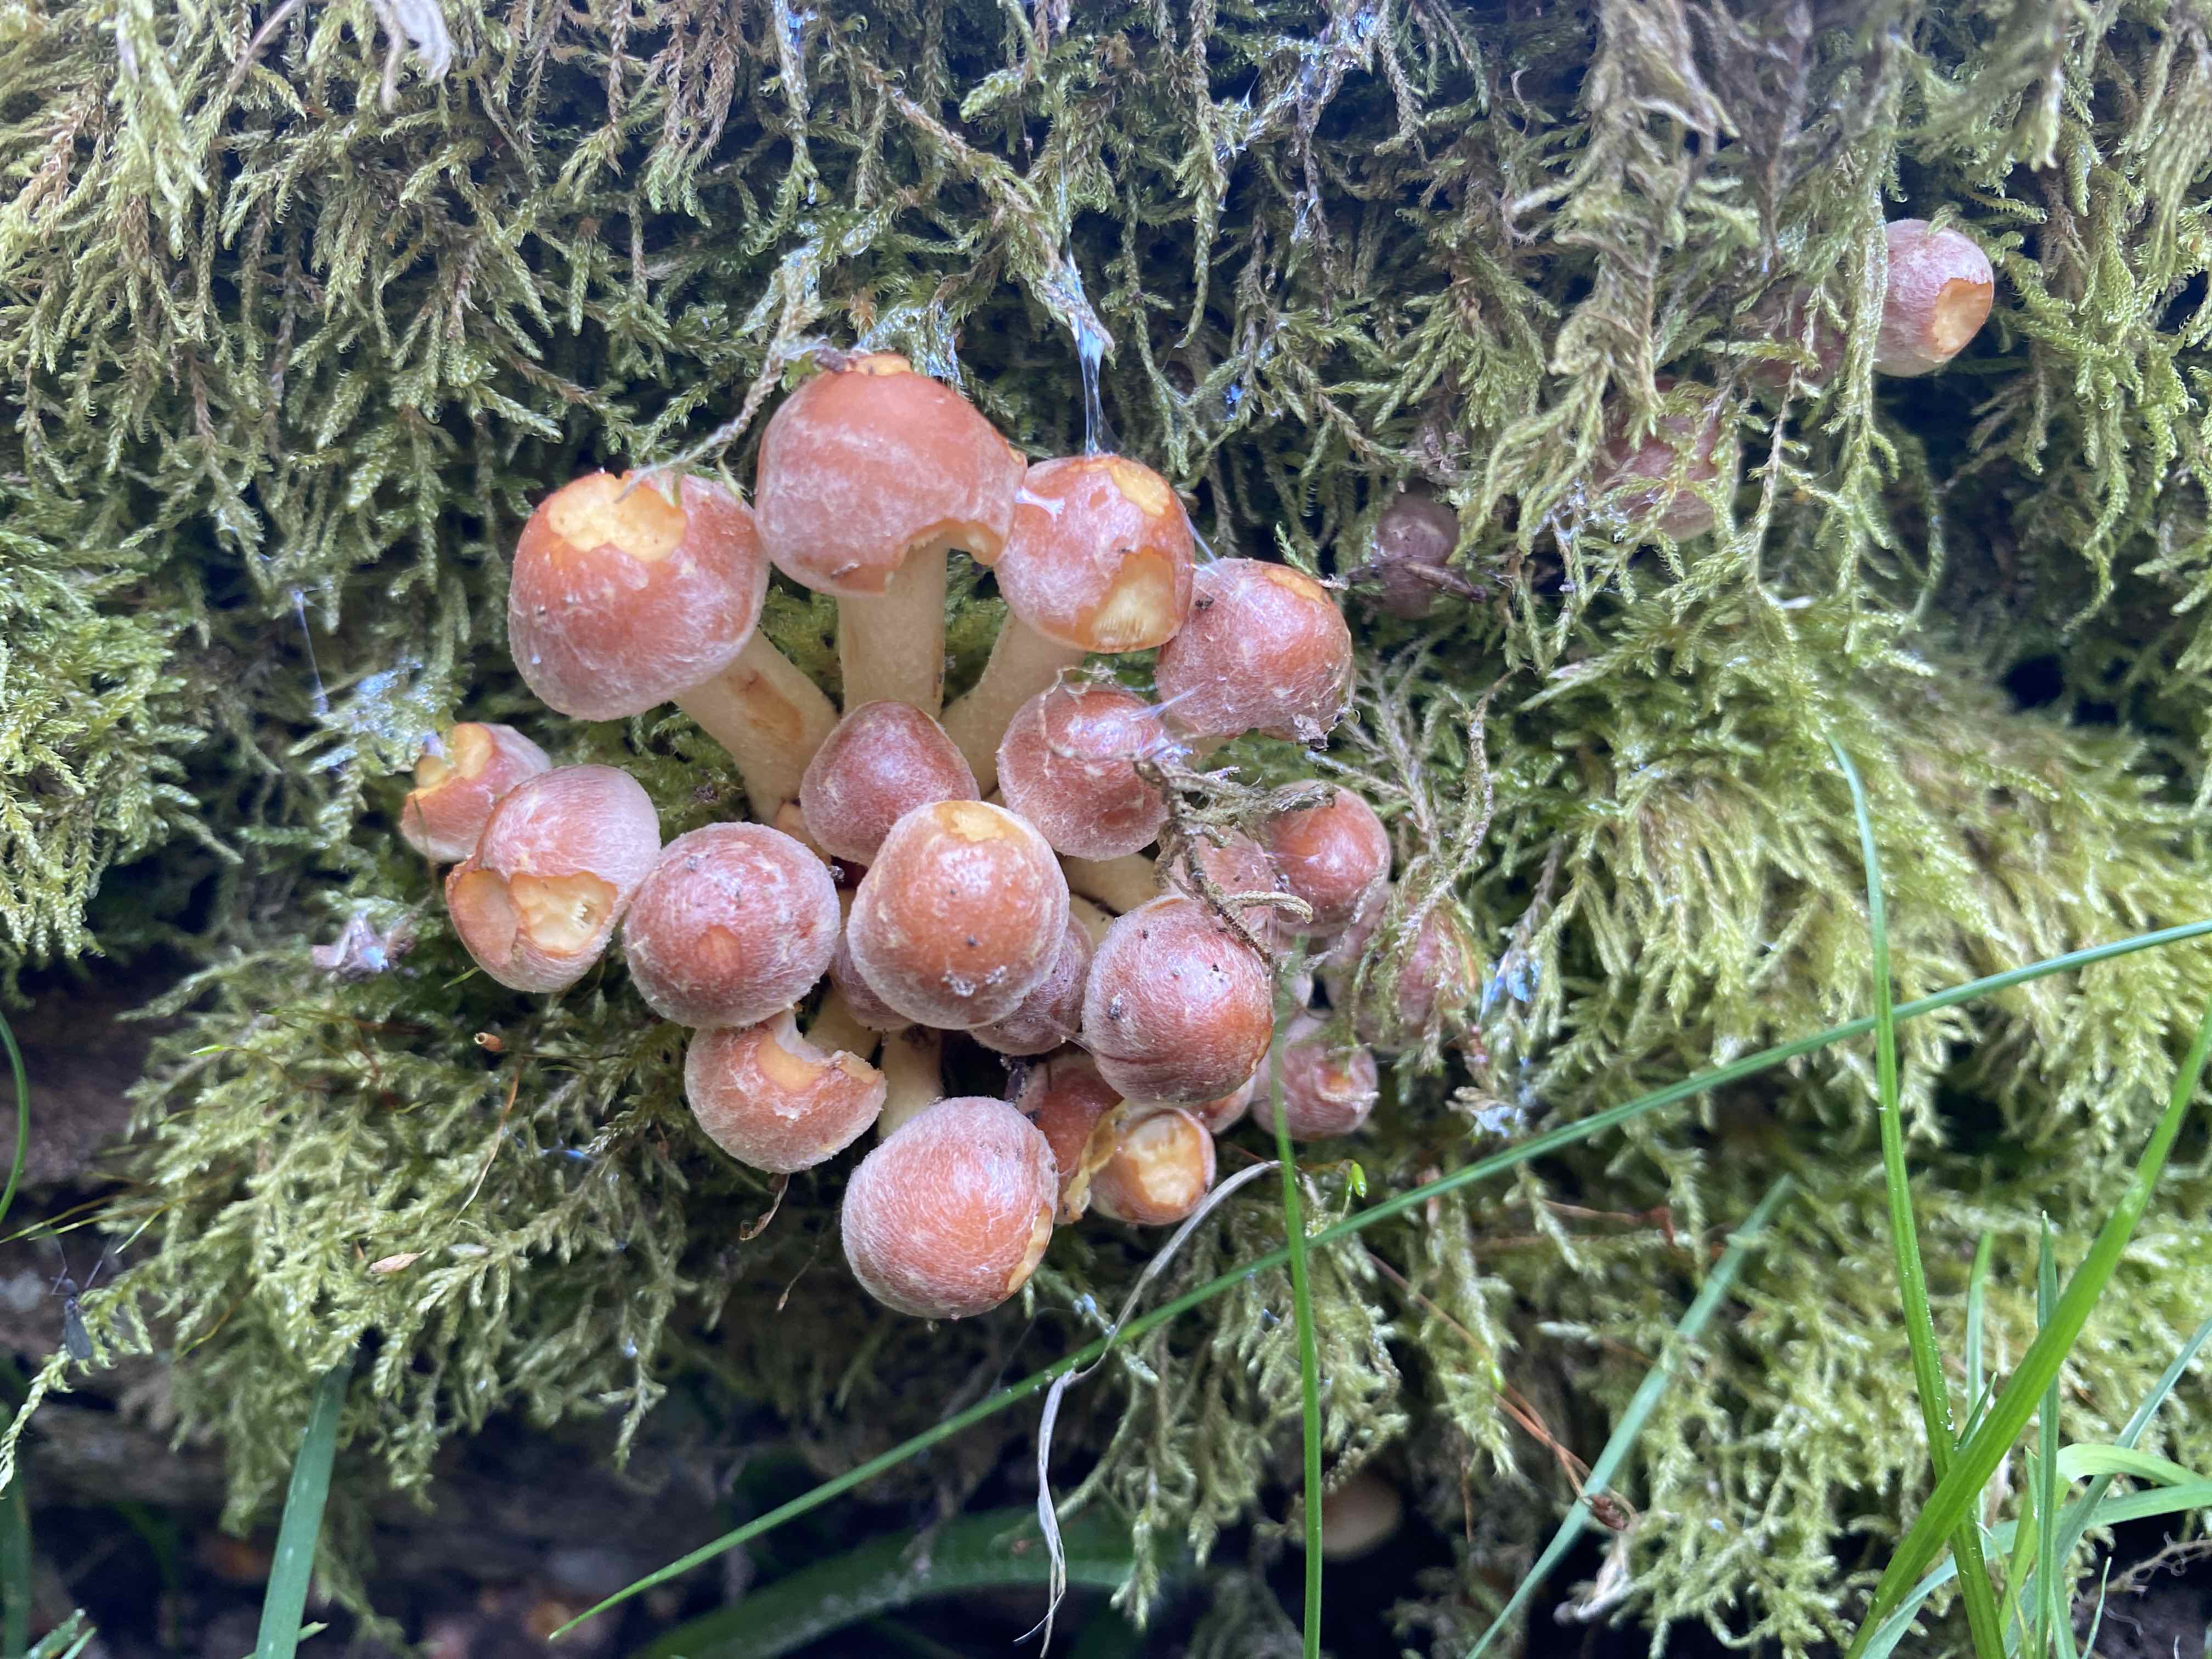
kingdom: Fungi
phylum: Basidiomycota
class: Agaricomycetes
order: Agaricales
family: Strophariaceae
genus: Hypholoma
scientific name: Hypholoma fasciculare
